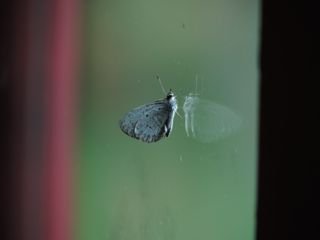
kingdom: Animalia
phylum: Arthropoda
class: Insecta
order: Lepidoptera
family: Lycaenidae
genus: Cyaniris
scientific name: Cyaniris neglecta
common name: Summer Azure
